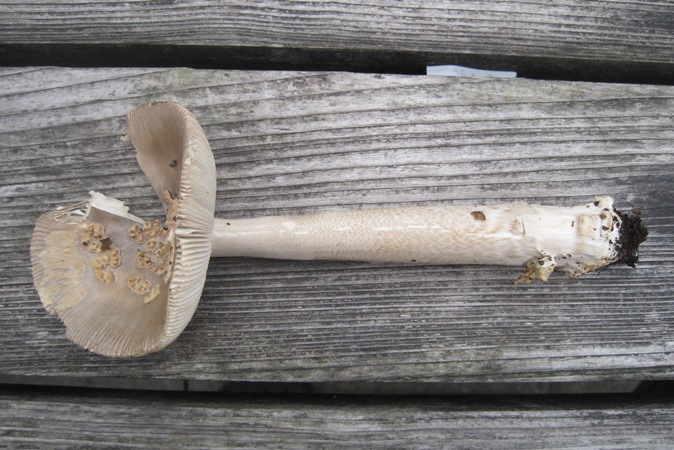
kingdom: Fungi
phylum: Basidiomycota
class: Agaricomycetes
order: Agaricales
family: Amanitaceae
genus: Amanita
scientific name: Amanita submembranacea
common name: gråspættet kam-fluesvamp
